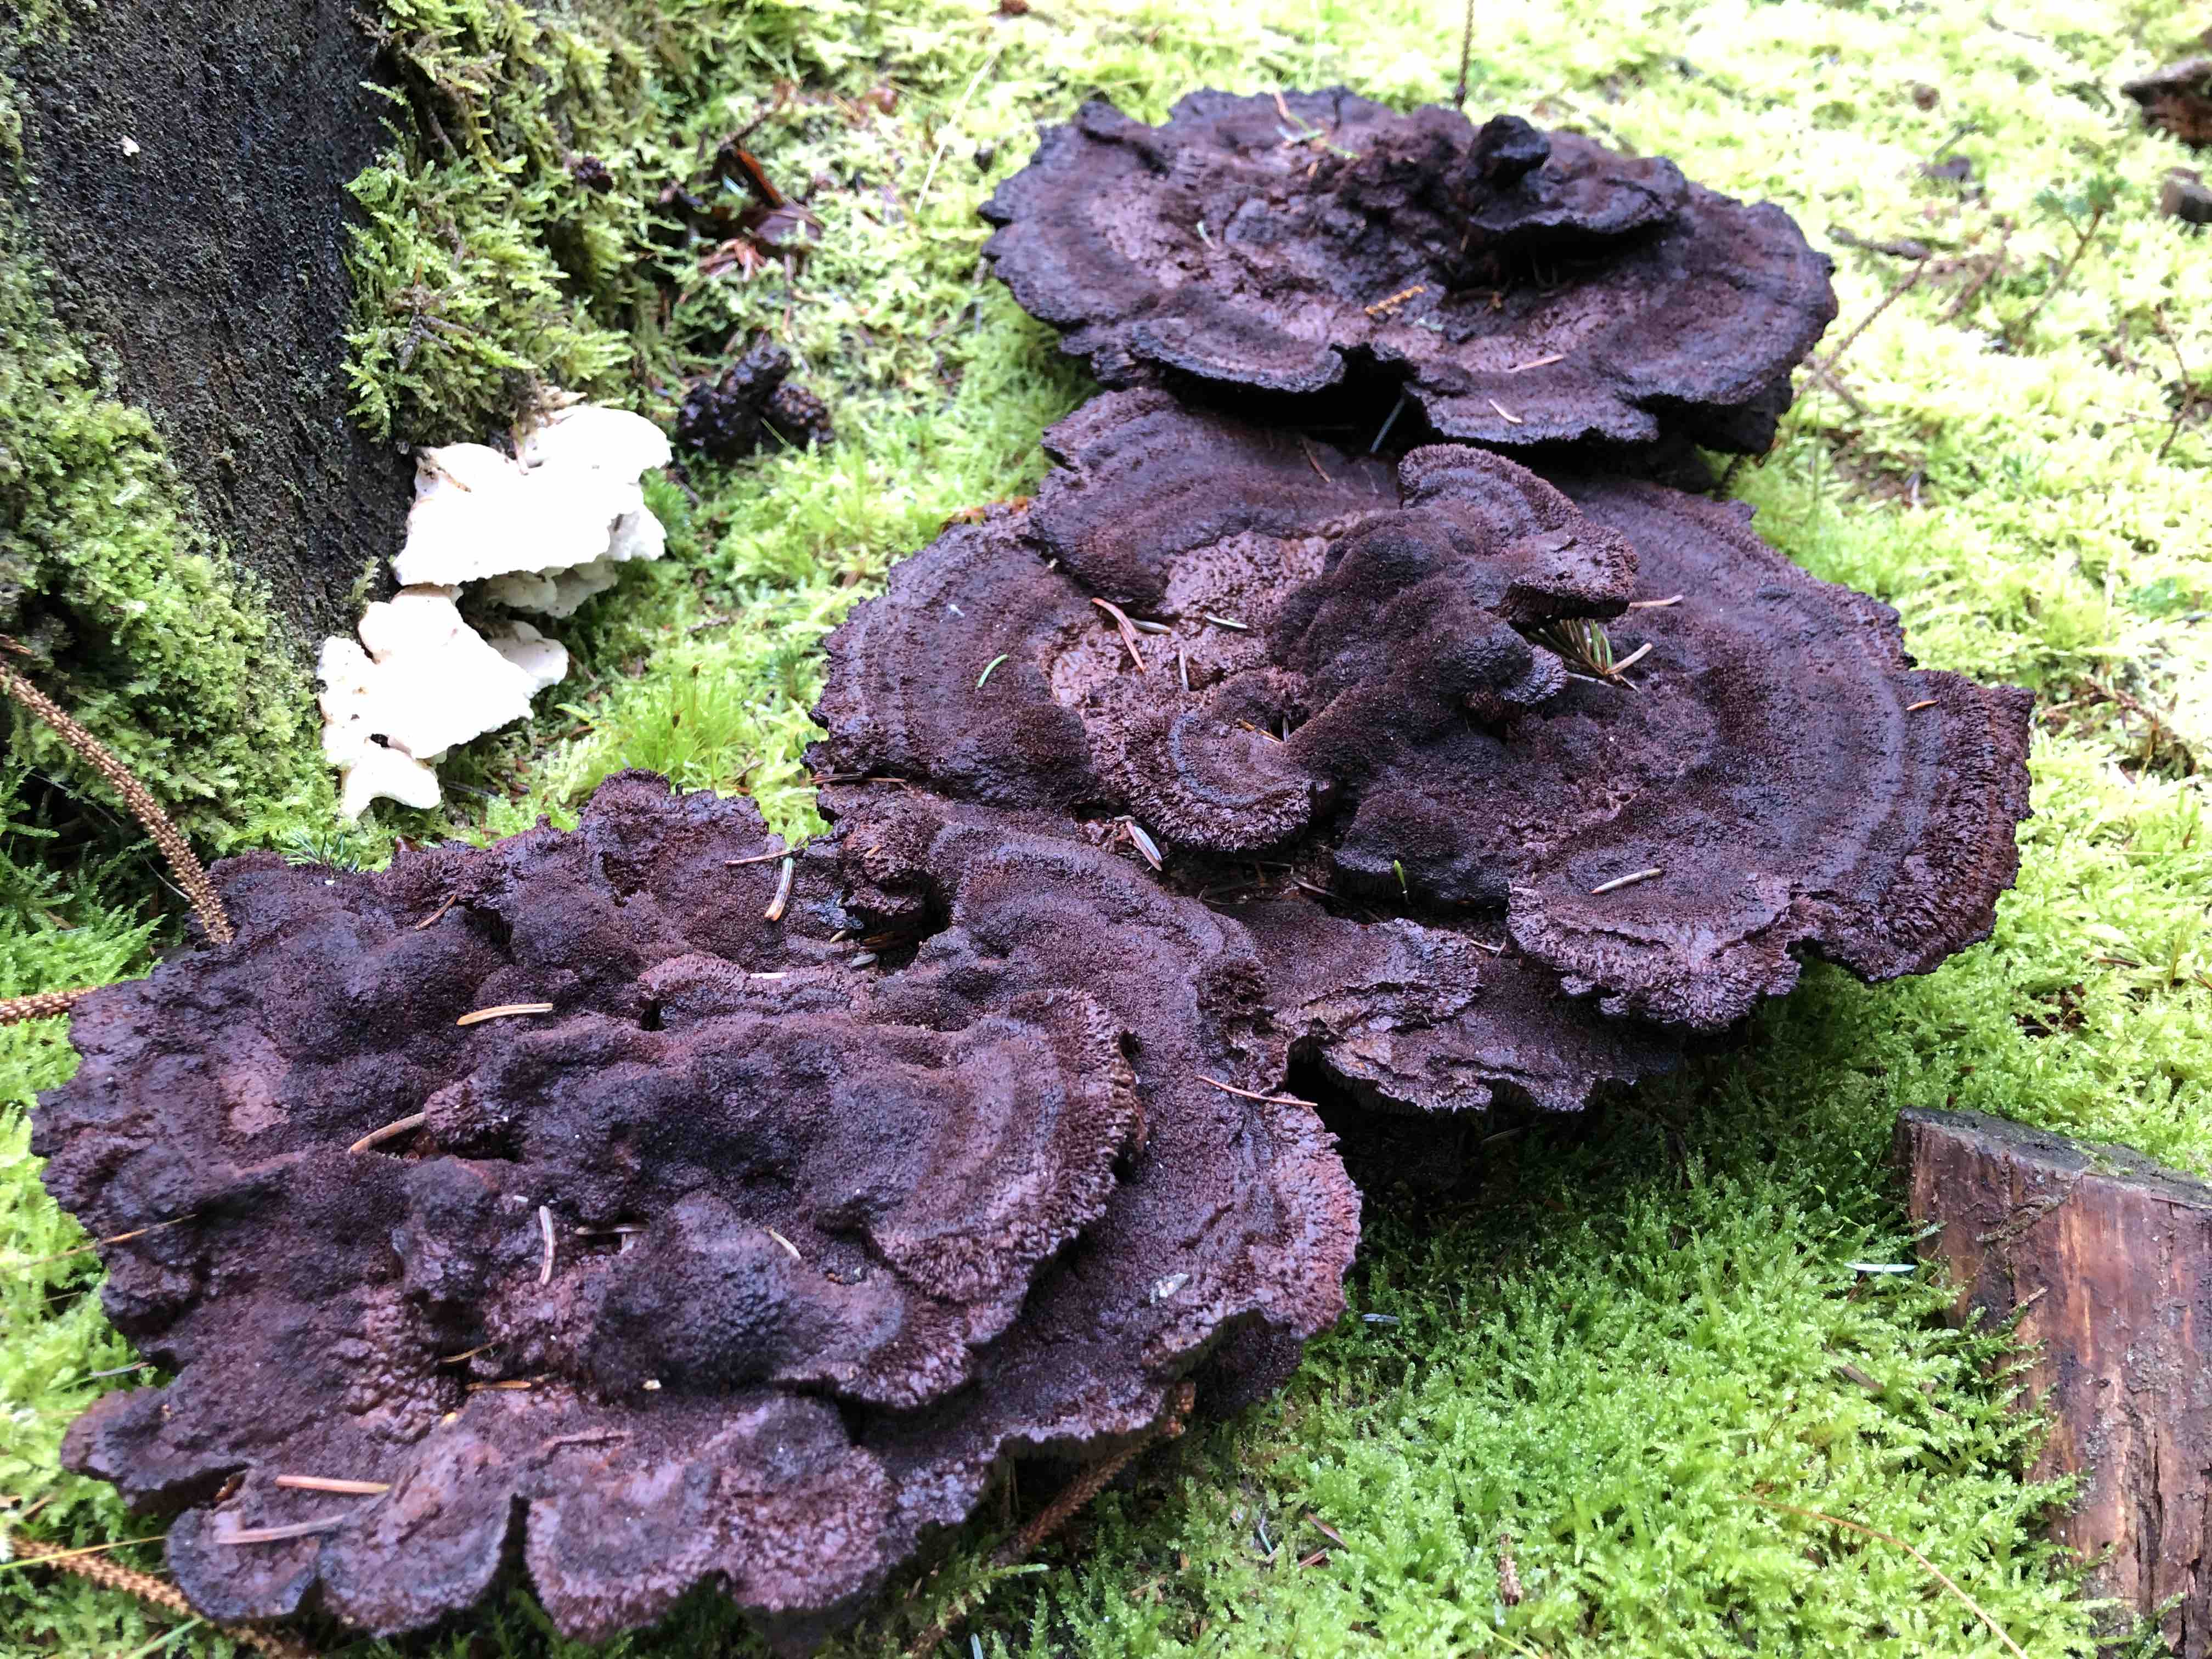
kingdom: Fungi
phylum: Basidiomycota
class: Agaricomycetes
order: Polyporales
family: Laetiporaceae
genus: Phaeolus
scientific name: Phaeolus schweinitzii
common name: brunporesvamp
